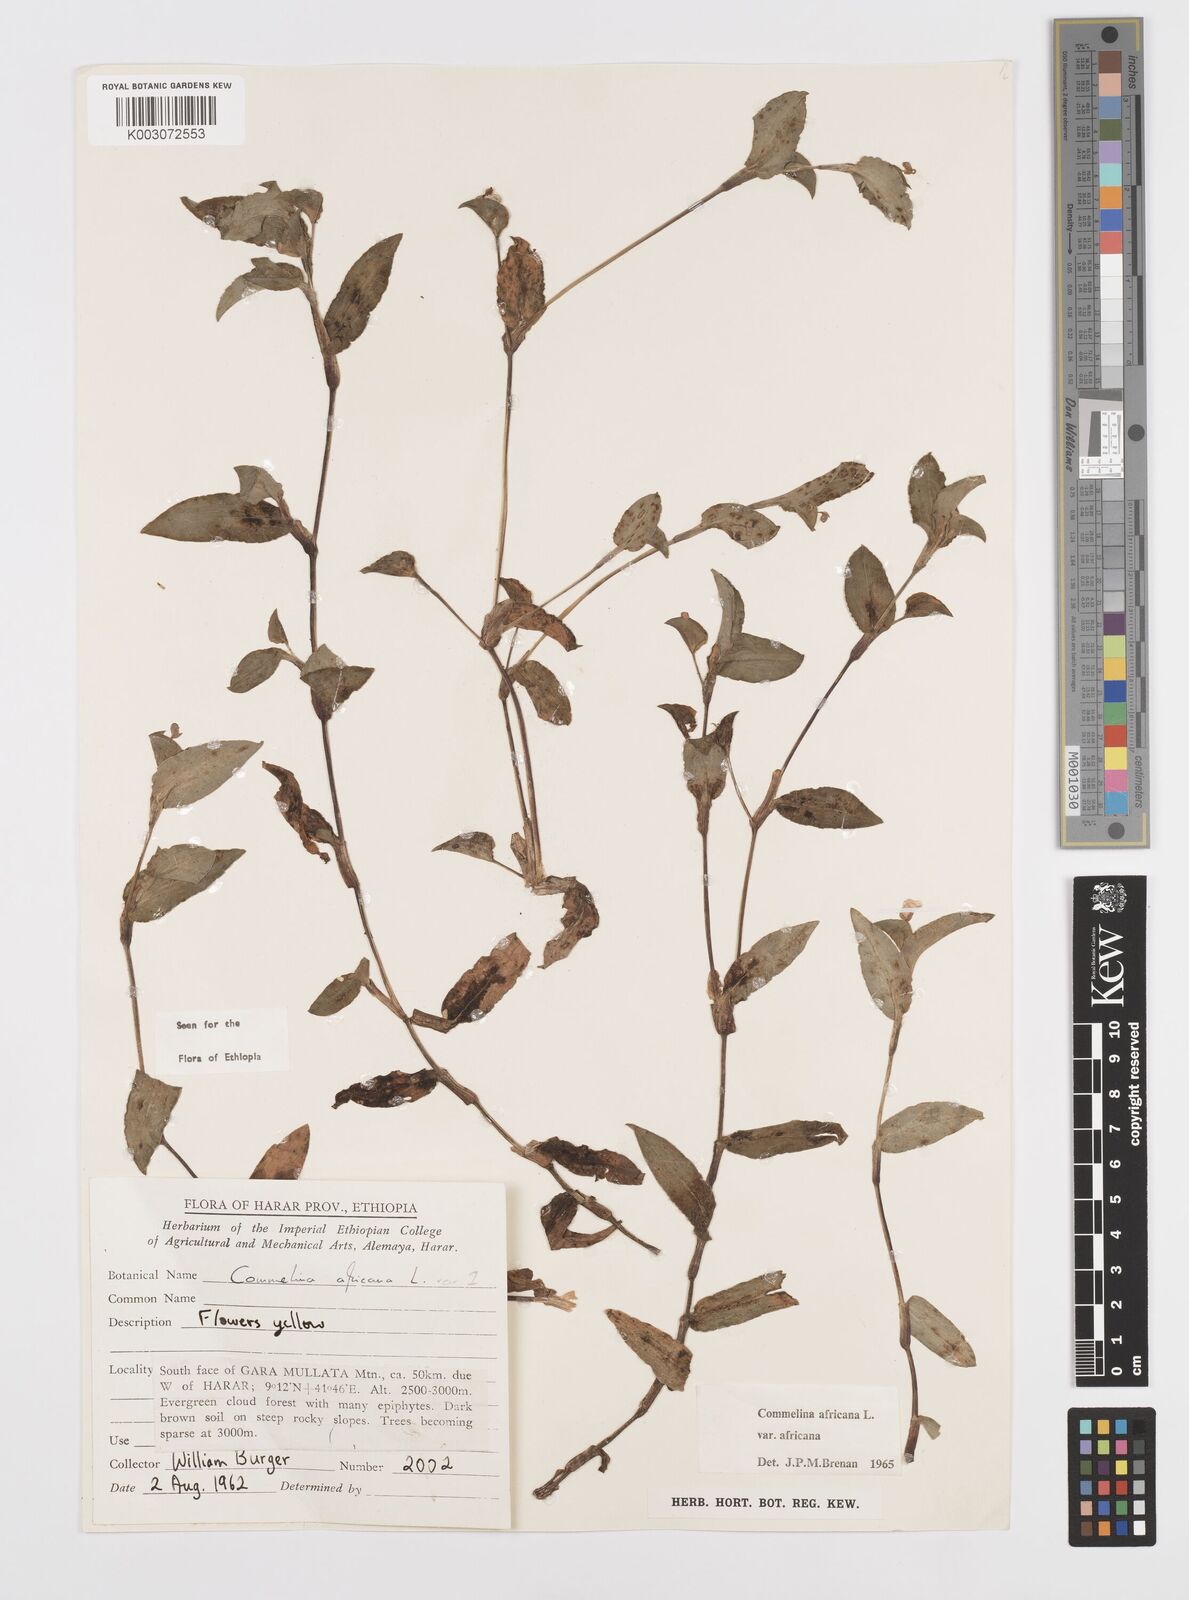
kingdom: Plantae
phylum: Tracheophyta
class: Liliopsida
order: Commelinales
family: Commelinaceae
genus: Commelina
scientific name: Commelina africana
